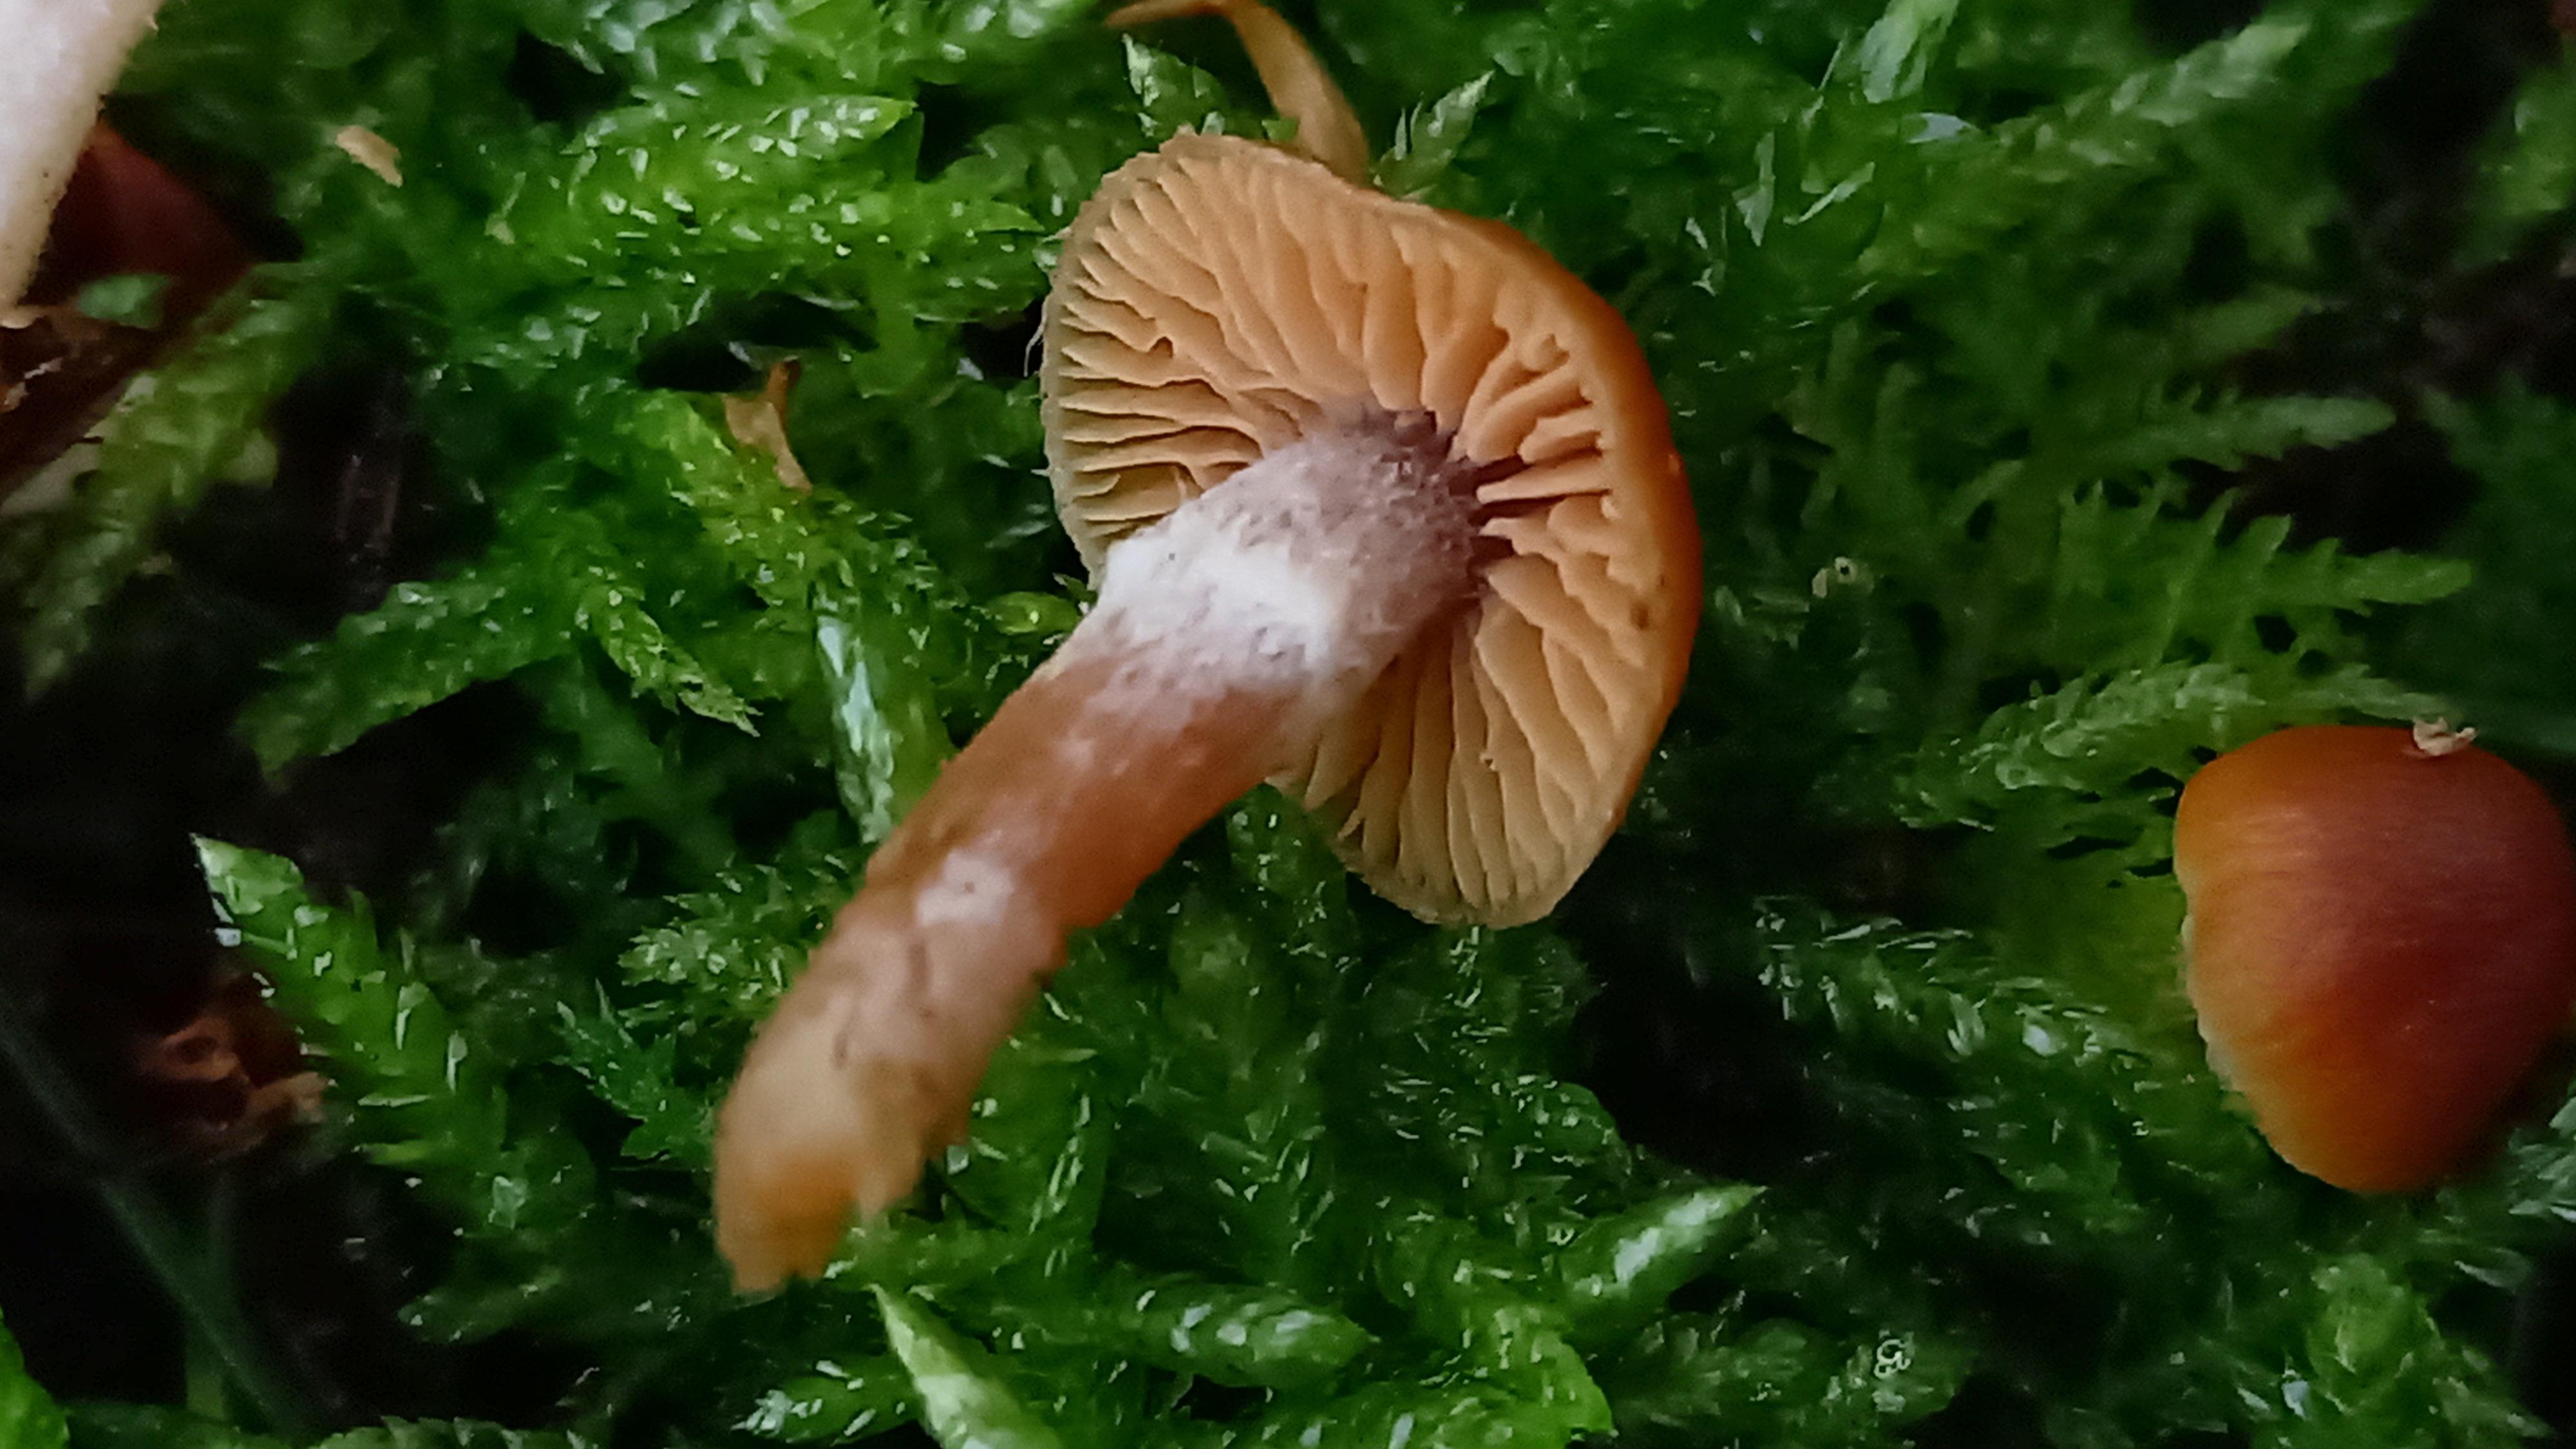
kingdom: Fungi
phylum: Basidiomycota
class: Agaricomycetes
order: Agaricales
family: Cortinariaceae
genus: Cortinarius
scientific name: Cortinarius
